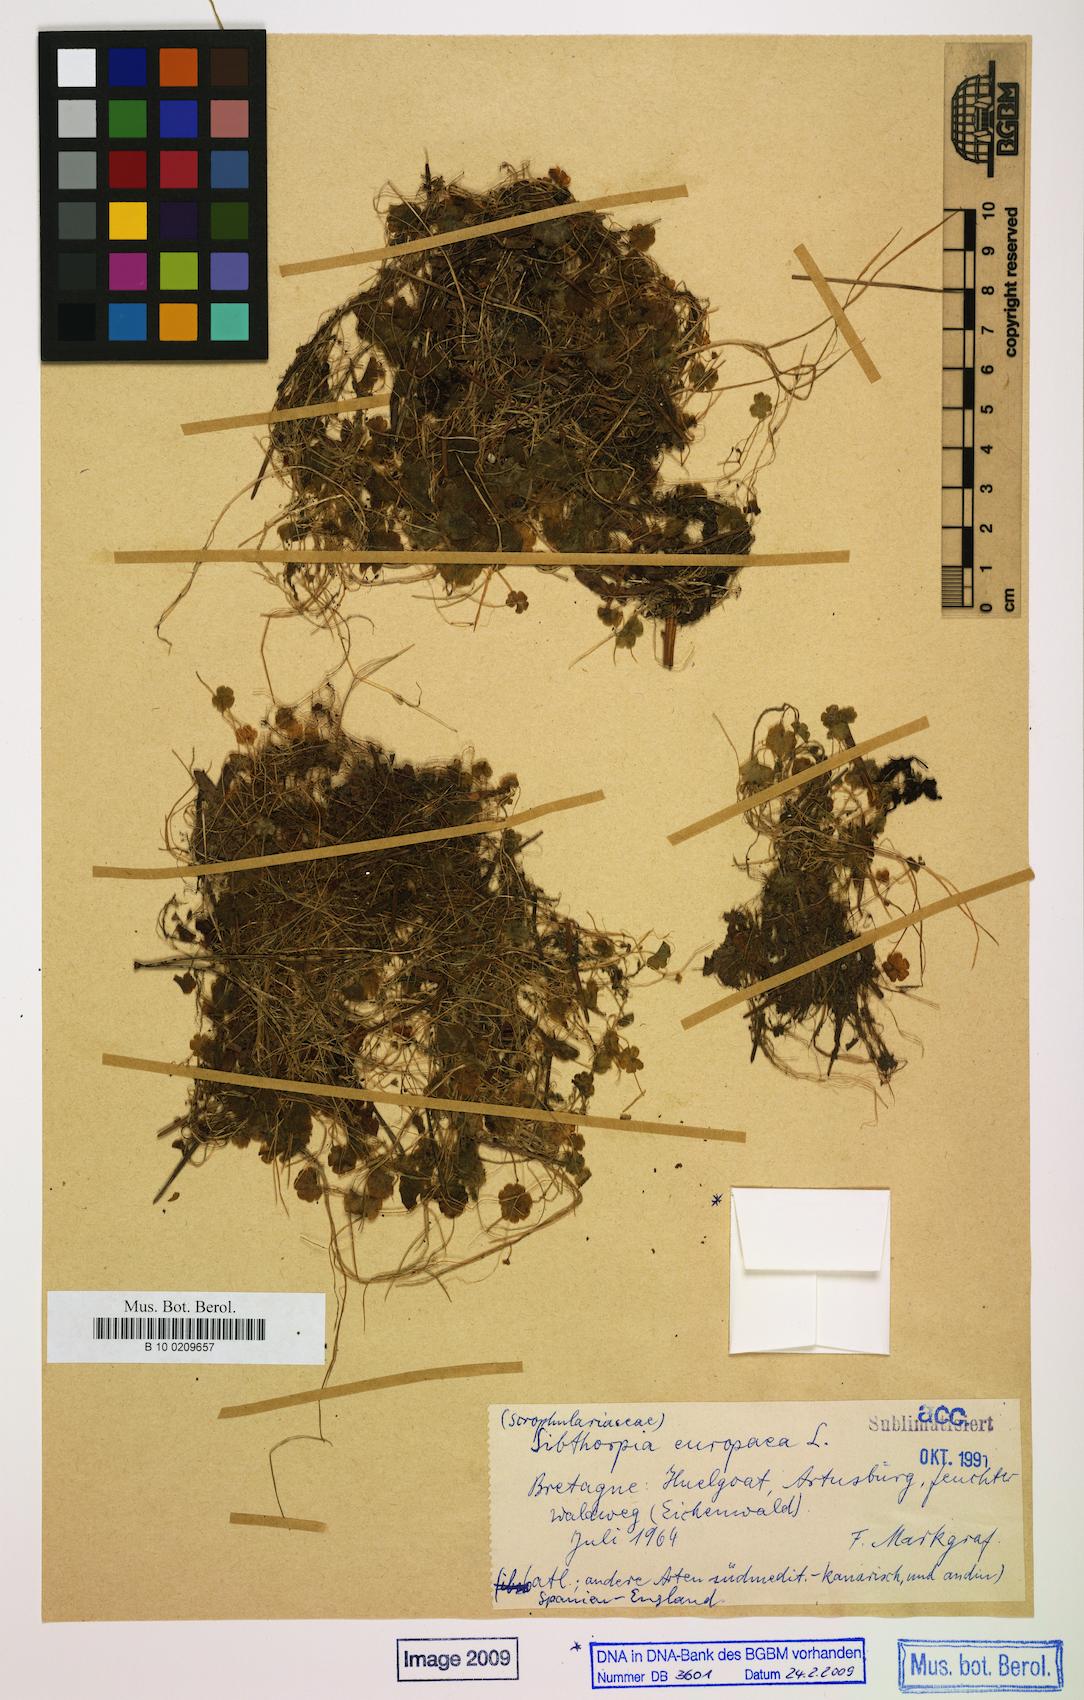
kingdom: Plantae
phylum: Tracheophyta
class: Magnoliopsida
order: Lamiales
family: Plantaginaceae
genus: Sibthorpia
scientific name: Sibthorpia europaea
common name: Cornish moneywort
